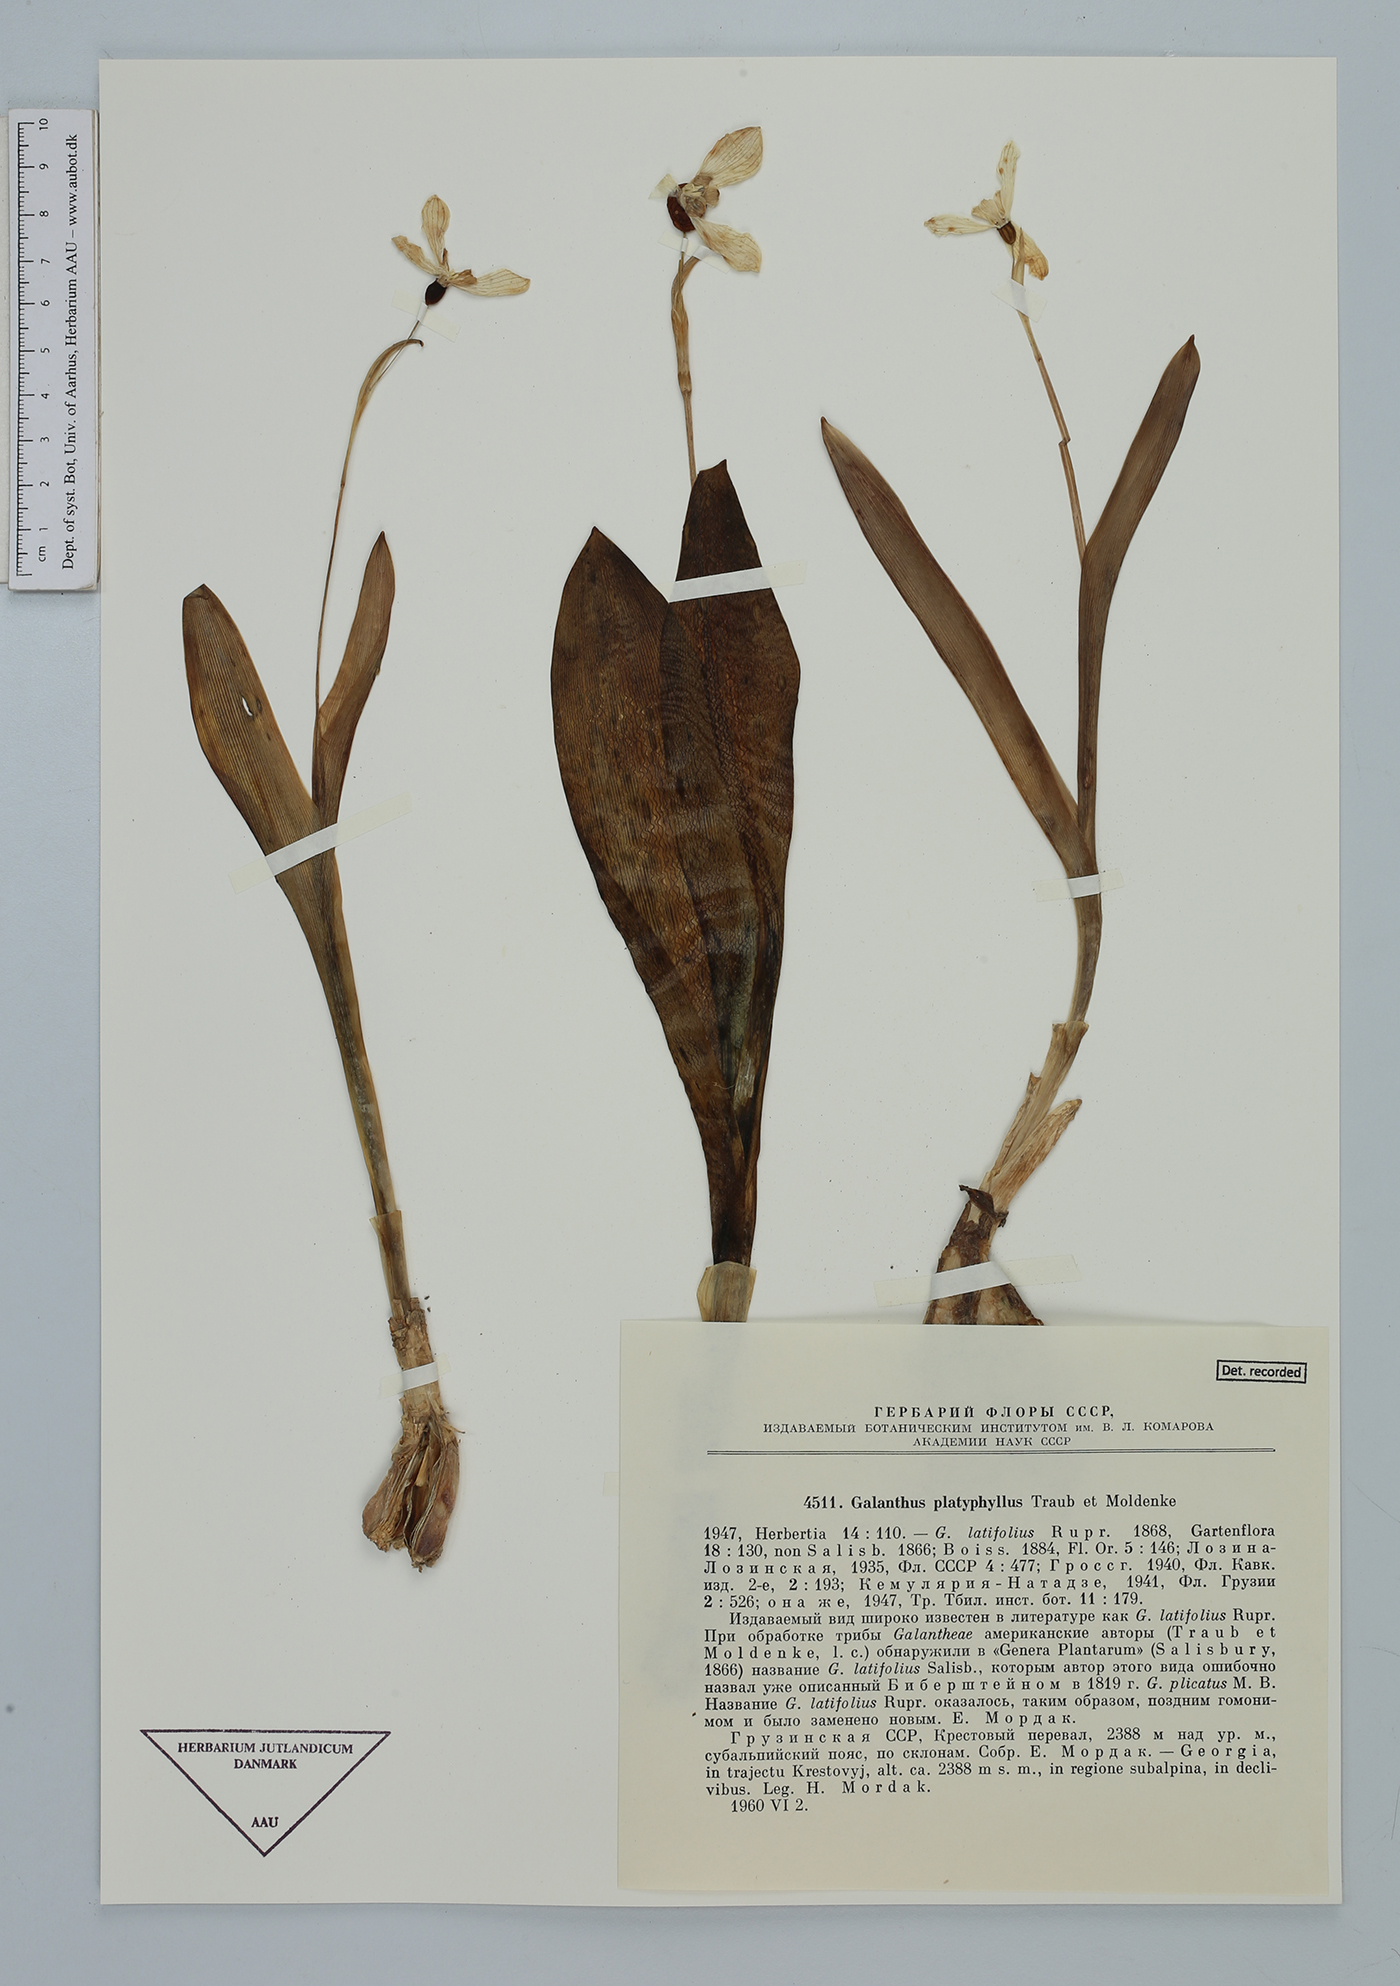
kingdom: Plantae
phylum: Tracheophyta
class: Liliopsida
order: Asparagales
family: Amaryllidaceae
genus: Galanthus
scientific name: Galanthus platyphyllus
